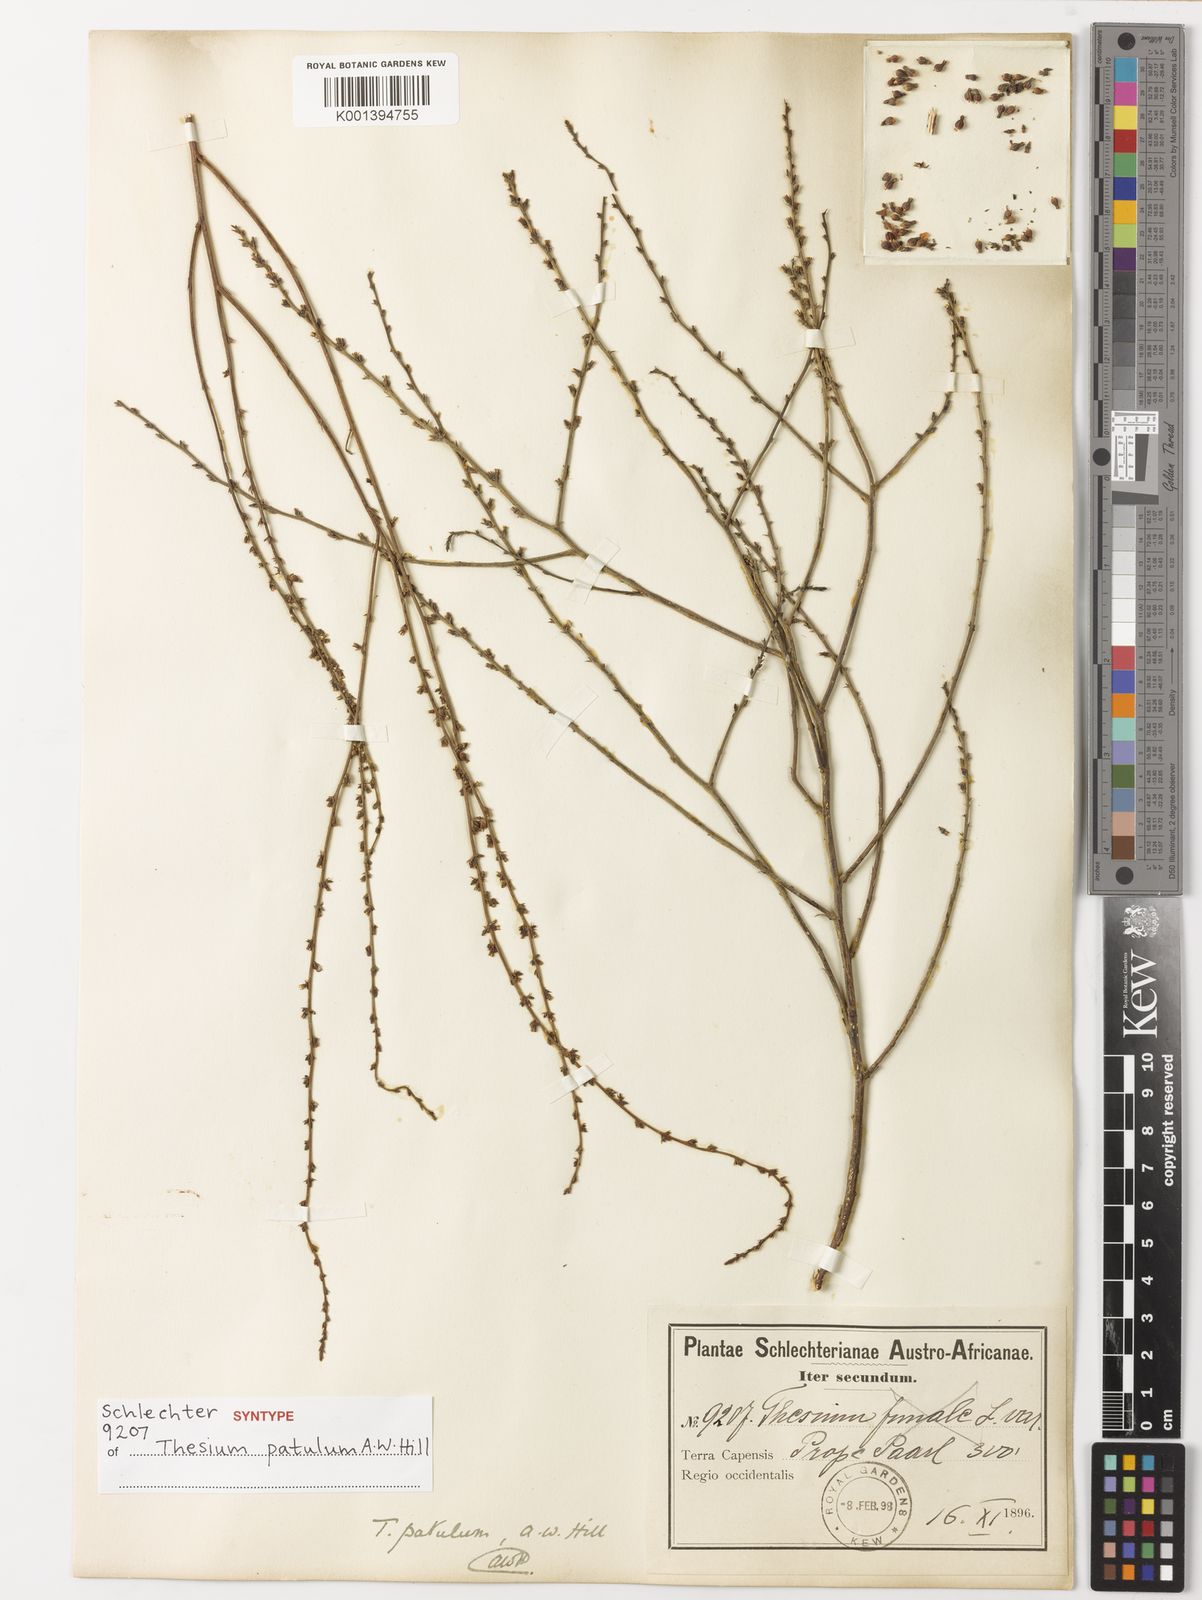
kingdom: Plantae
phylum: Tracheophyta
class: Magnoliopsida
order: Santalales
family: Thesiaceae
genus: Thesium
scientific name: Thesium patulum
